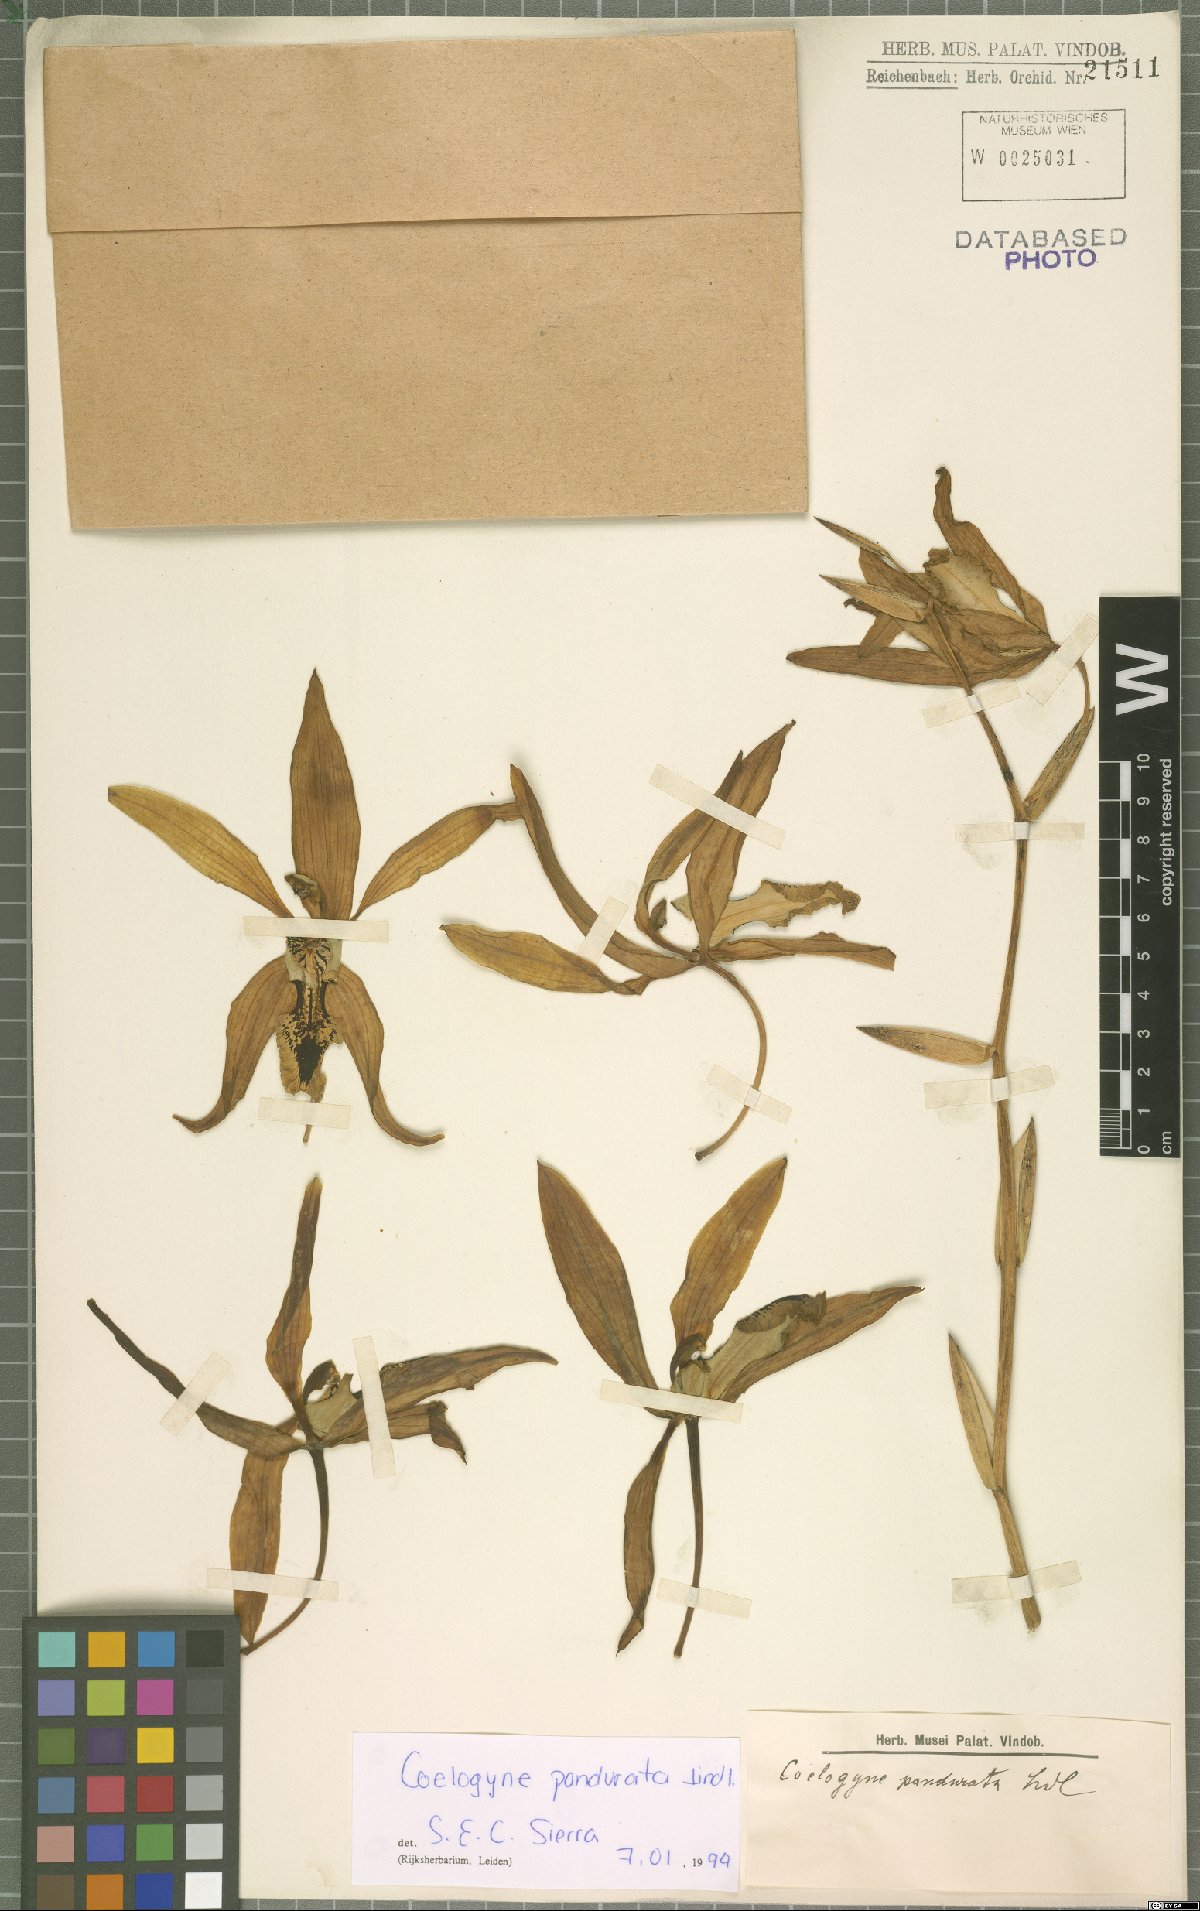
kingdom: Plantae
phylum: Tracheophyta
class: Liliopsida
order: Asparagales
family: Orchidaceae
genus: Coelogyne
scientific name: Coelogyne pandurata
